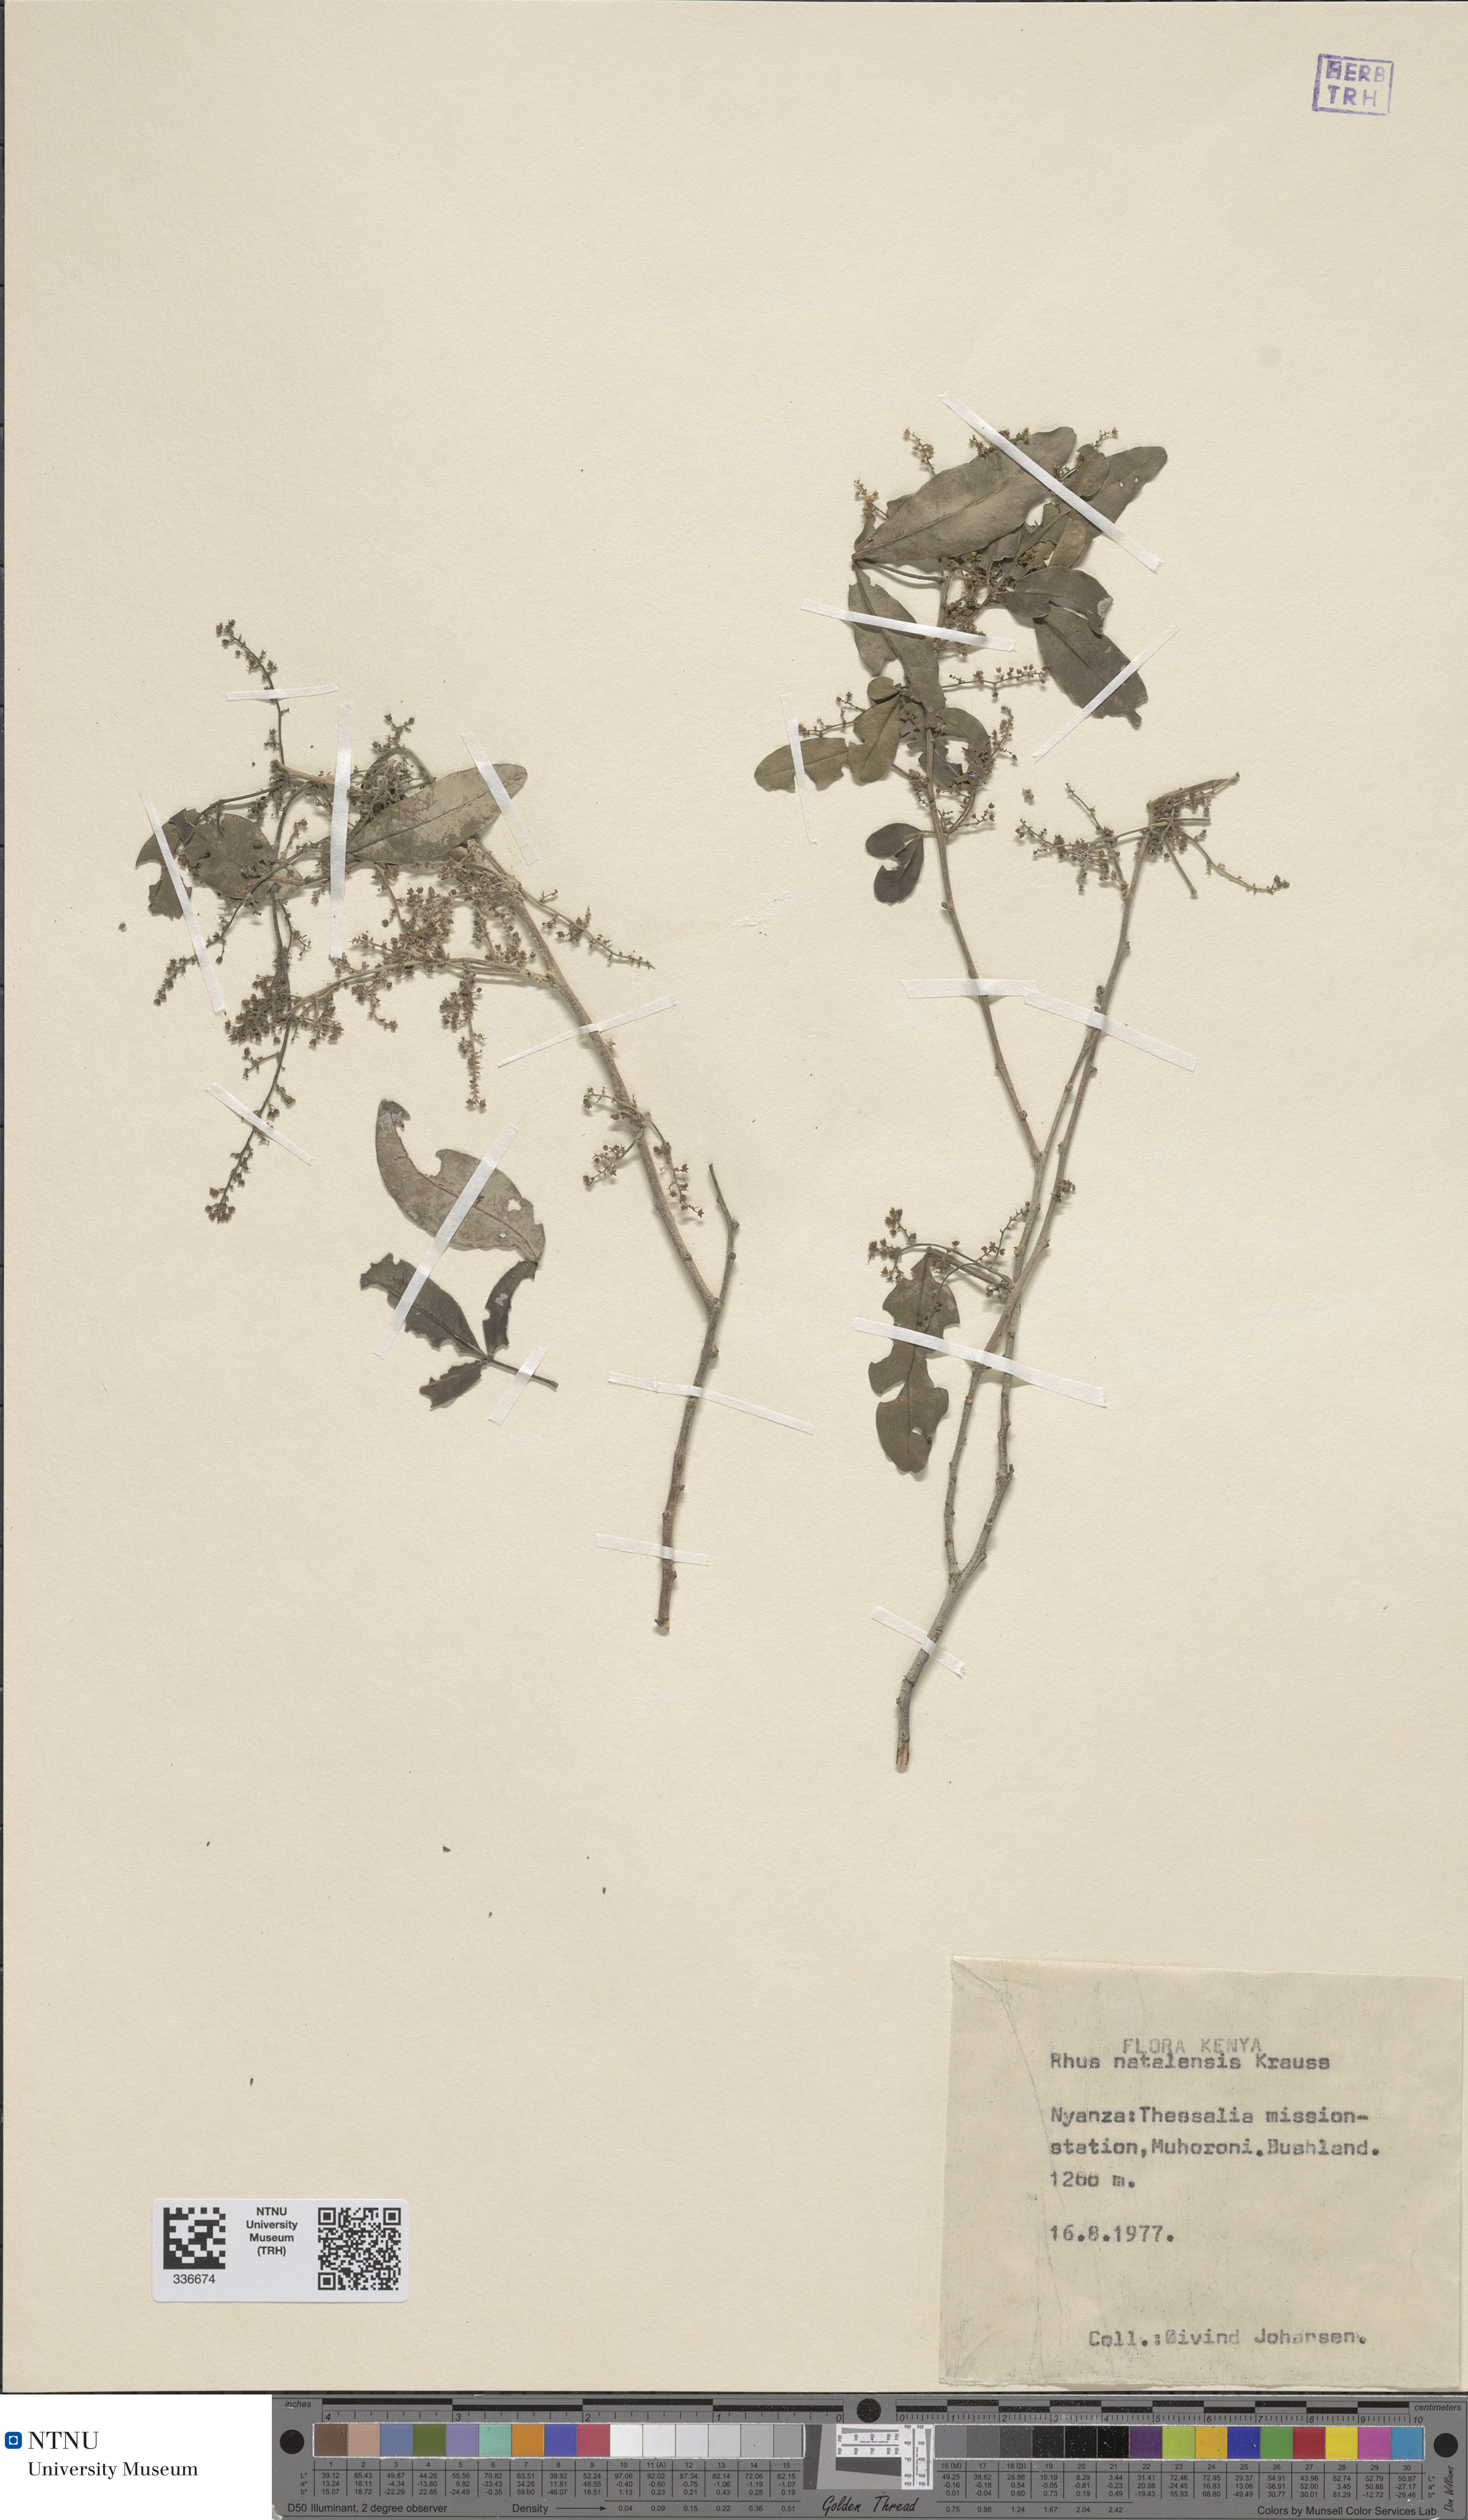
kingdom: Plantae
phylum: Tracheophyta
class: Magnoliopsida
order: Sapindales
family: Anacardiaceae
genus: Searsia
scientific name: Searsia natalensis
